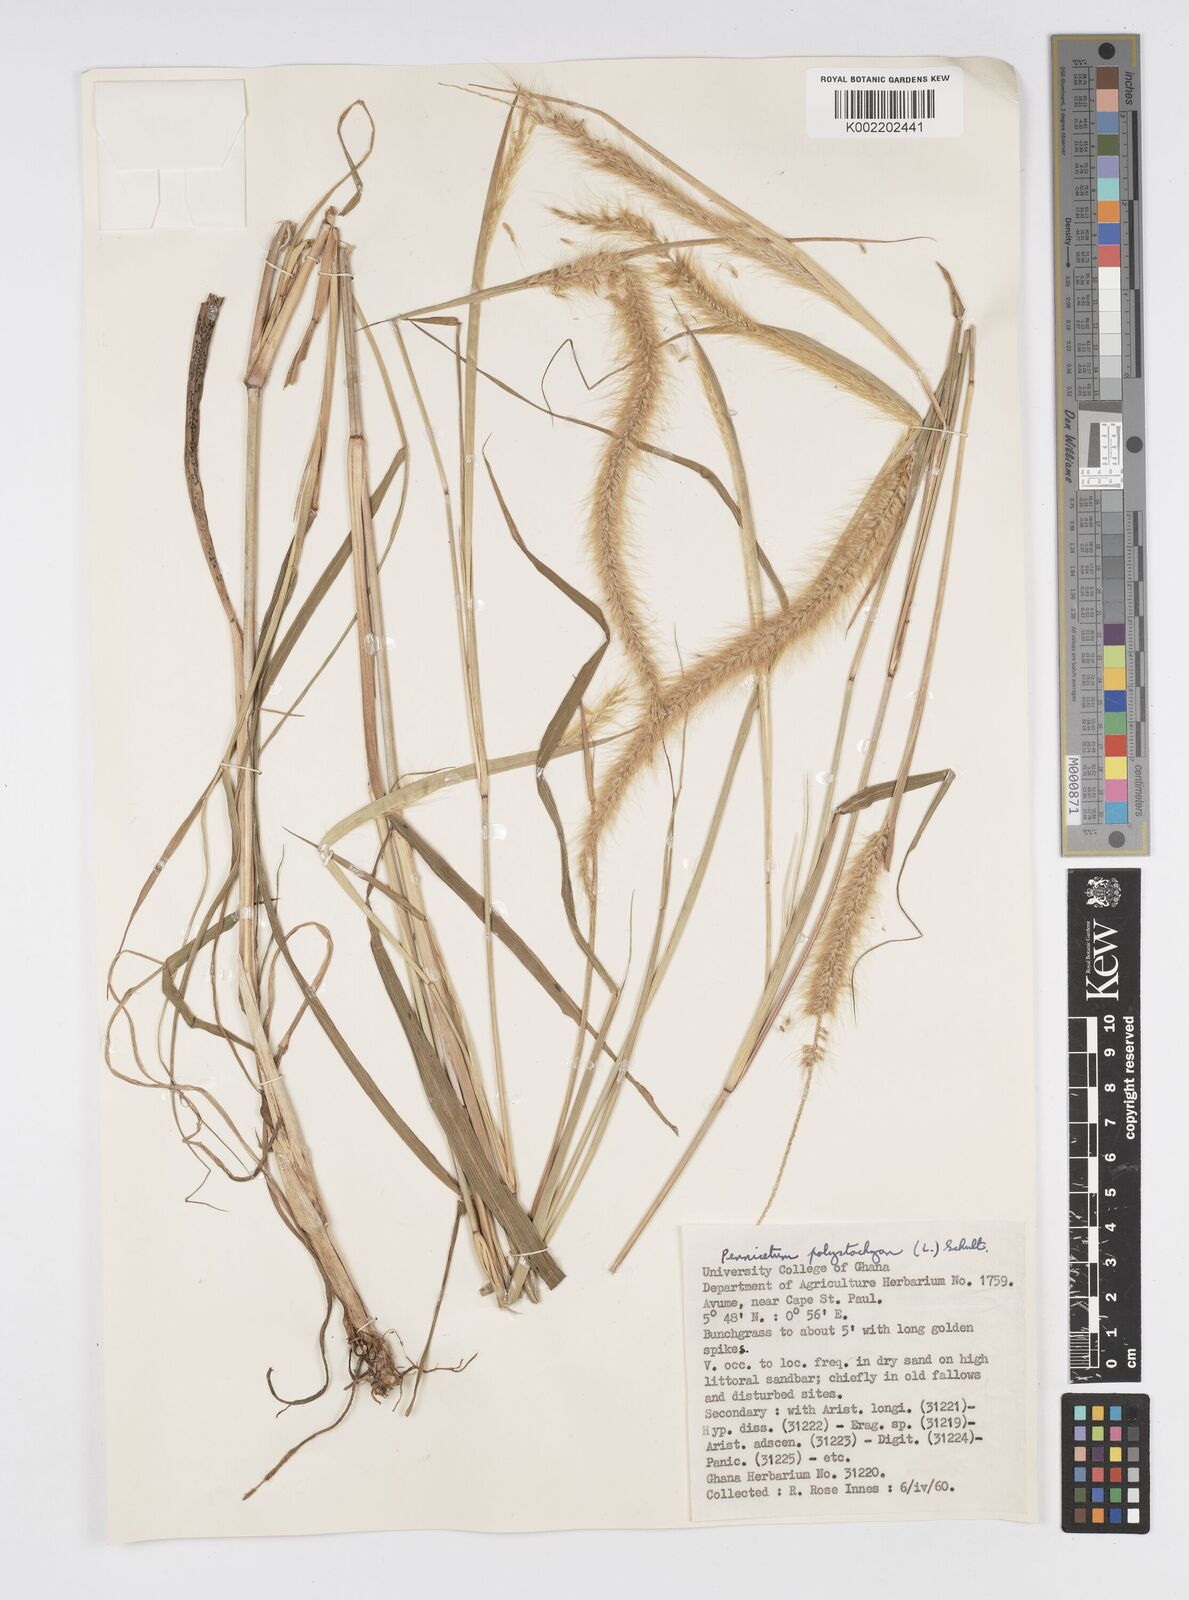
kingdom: Plantae
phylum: Tracheophyta
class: Liliopsida
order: Poales
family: Poaceae
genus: Setaria
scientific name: Setaria parviflora
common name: Knotroot bristle-grass
